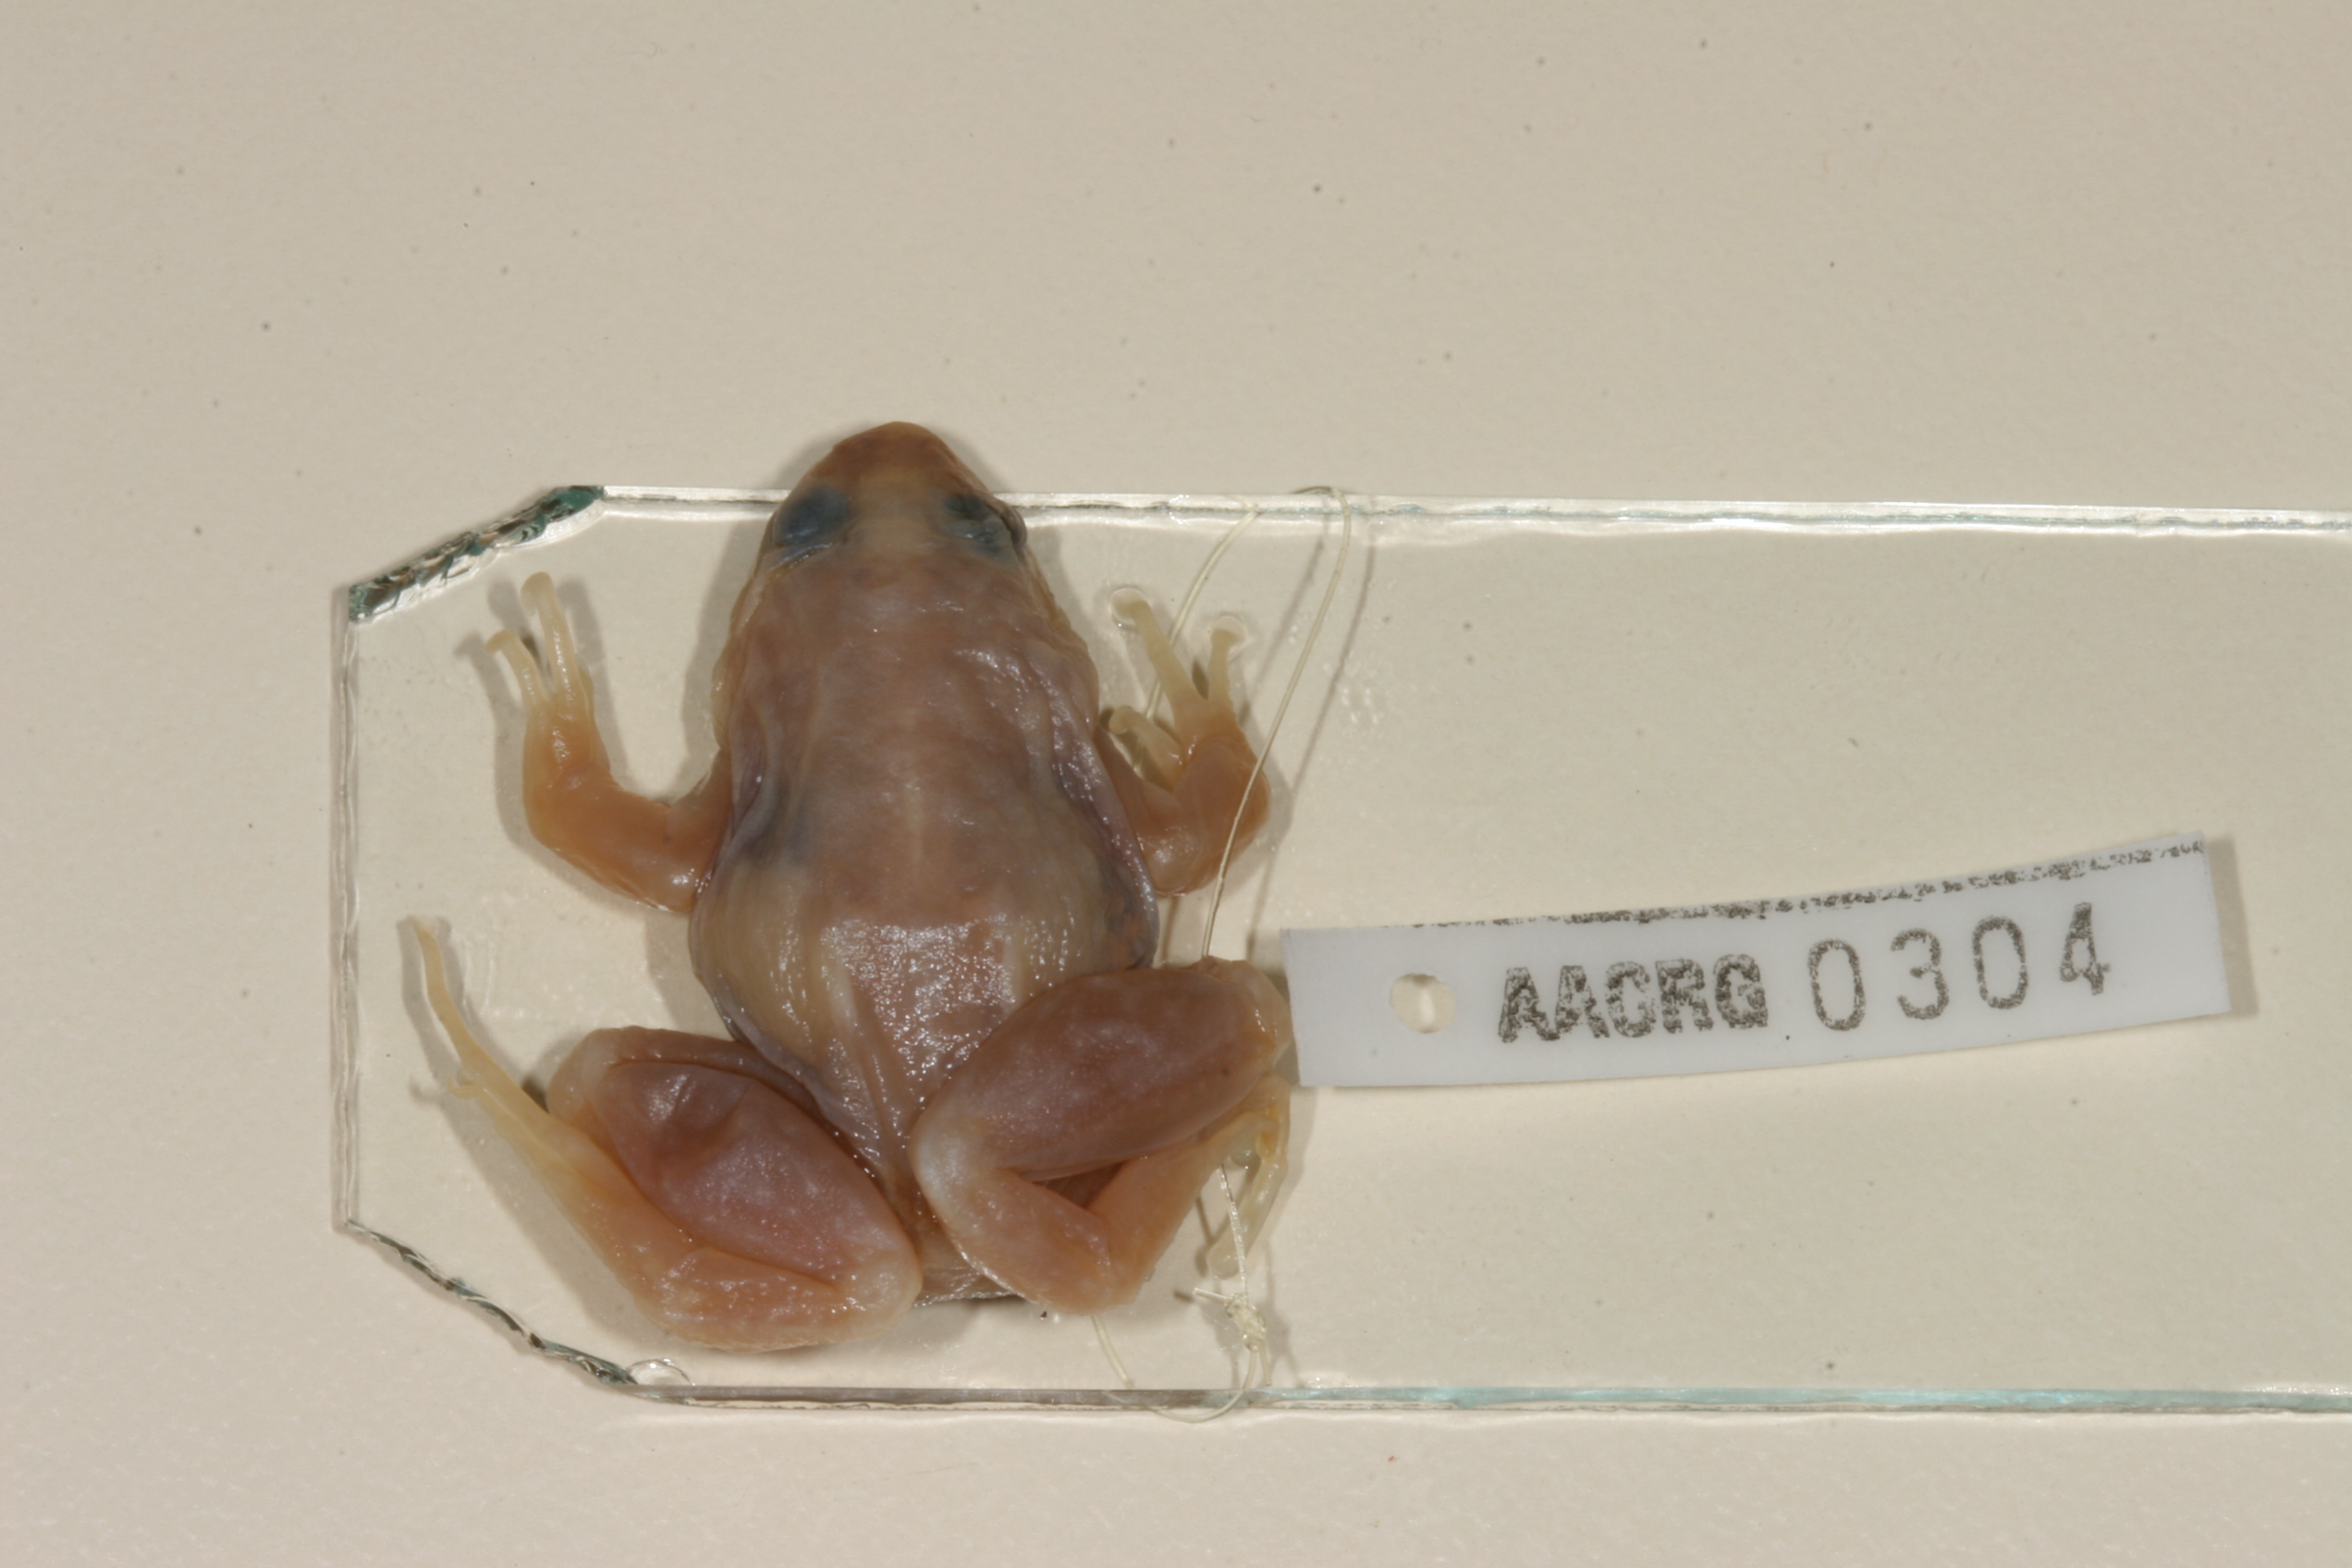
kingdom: Animalia
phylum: Chordata
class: Amphibia
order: Anura
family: Phrynobatrachidae
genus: Phrynobatrachus
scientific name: Phrynobatrachus versicolor
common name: Rwanda river frog
